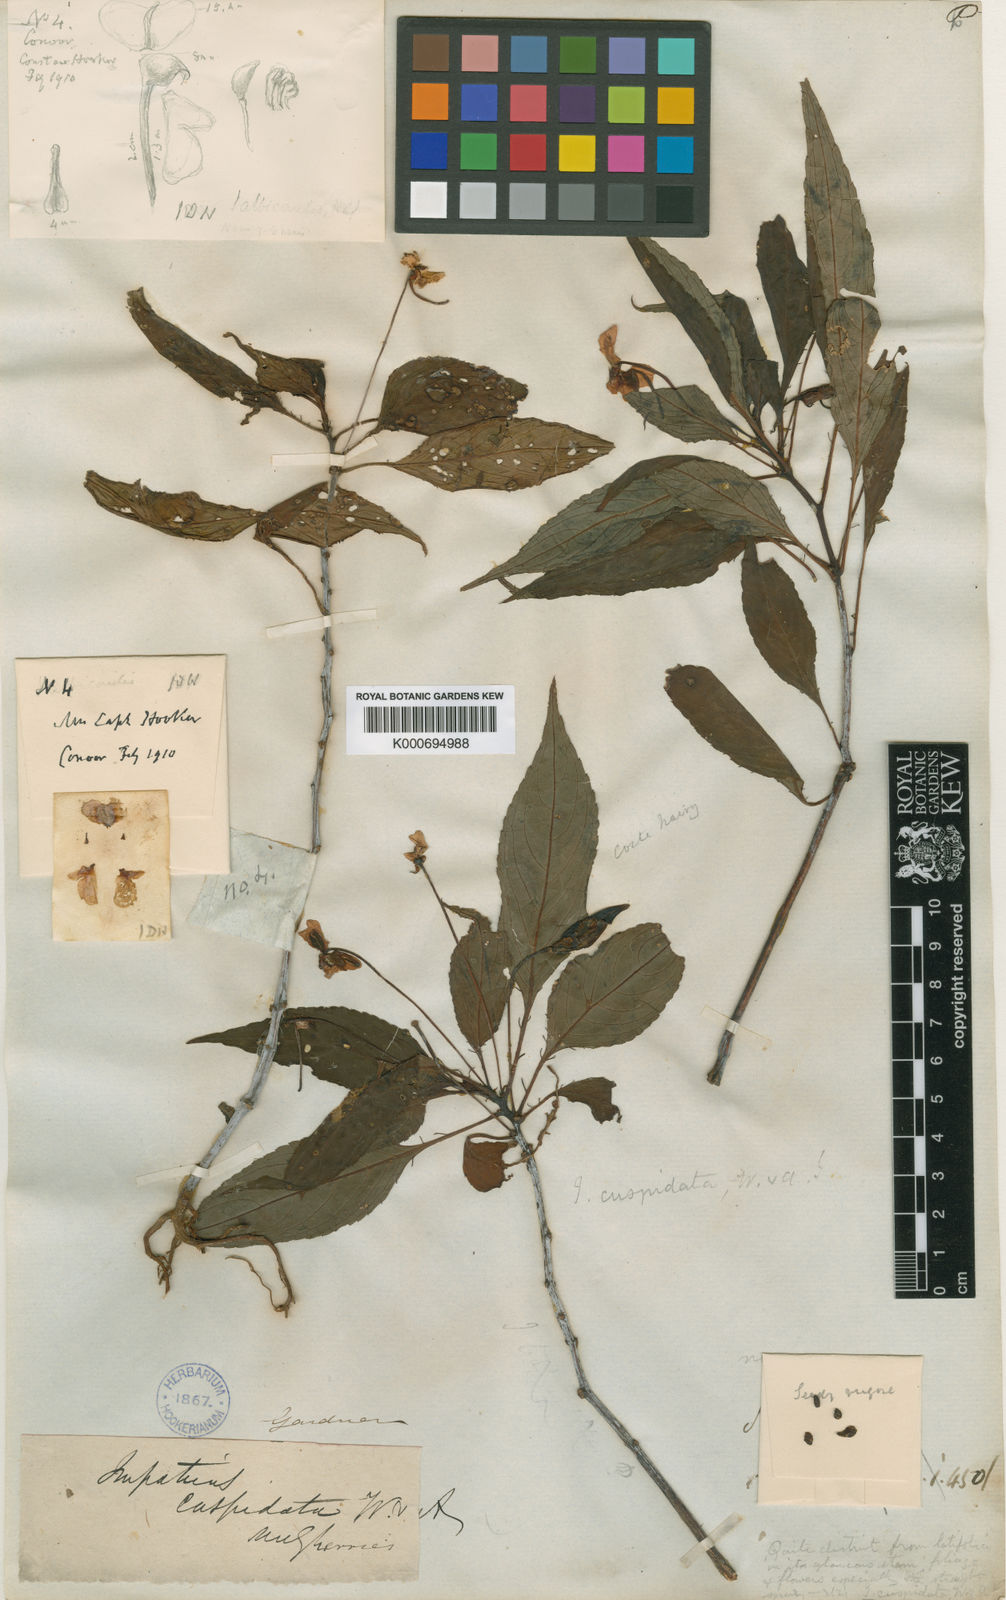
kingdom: Plantae
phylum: Tracheophyta
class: Magnoliopsida
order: Ericales
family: Balsaminaceae
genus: Impatiens
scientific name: Impatiens cuspidata
